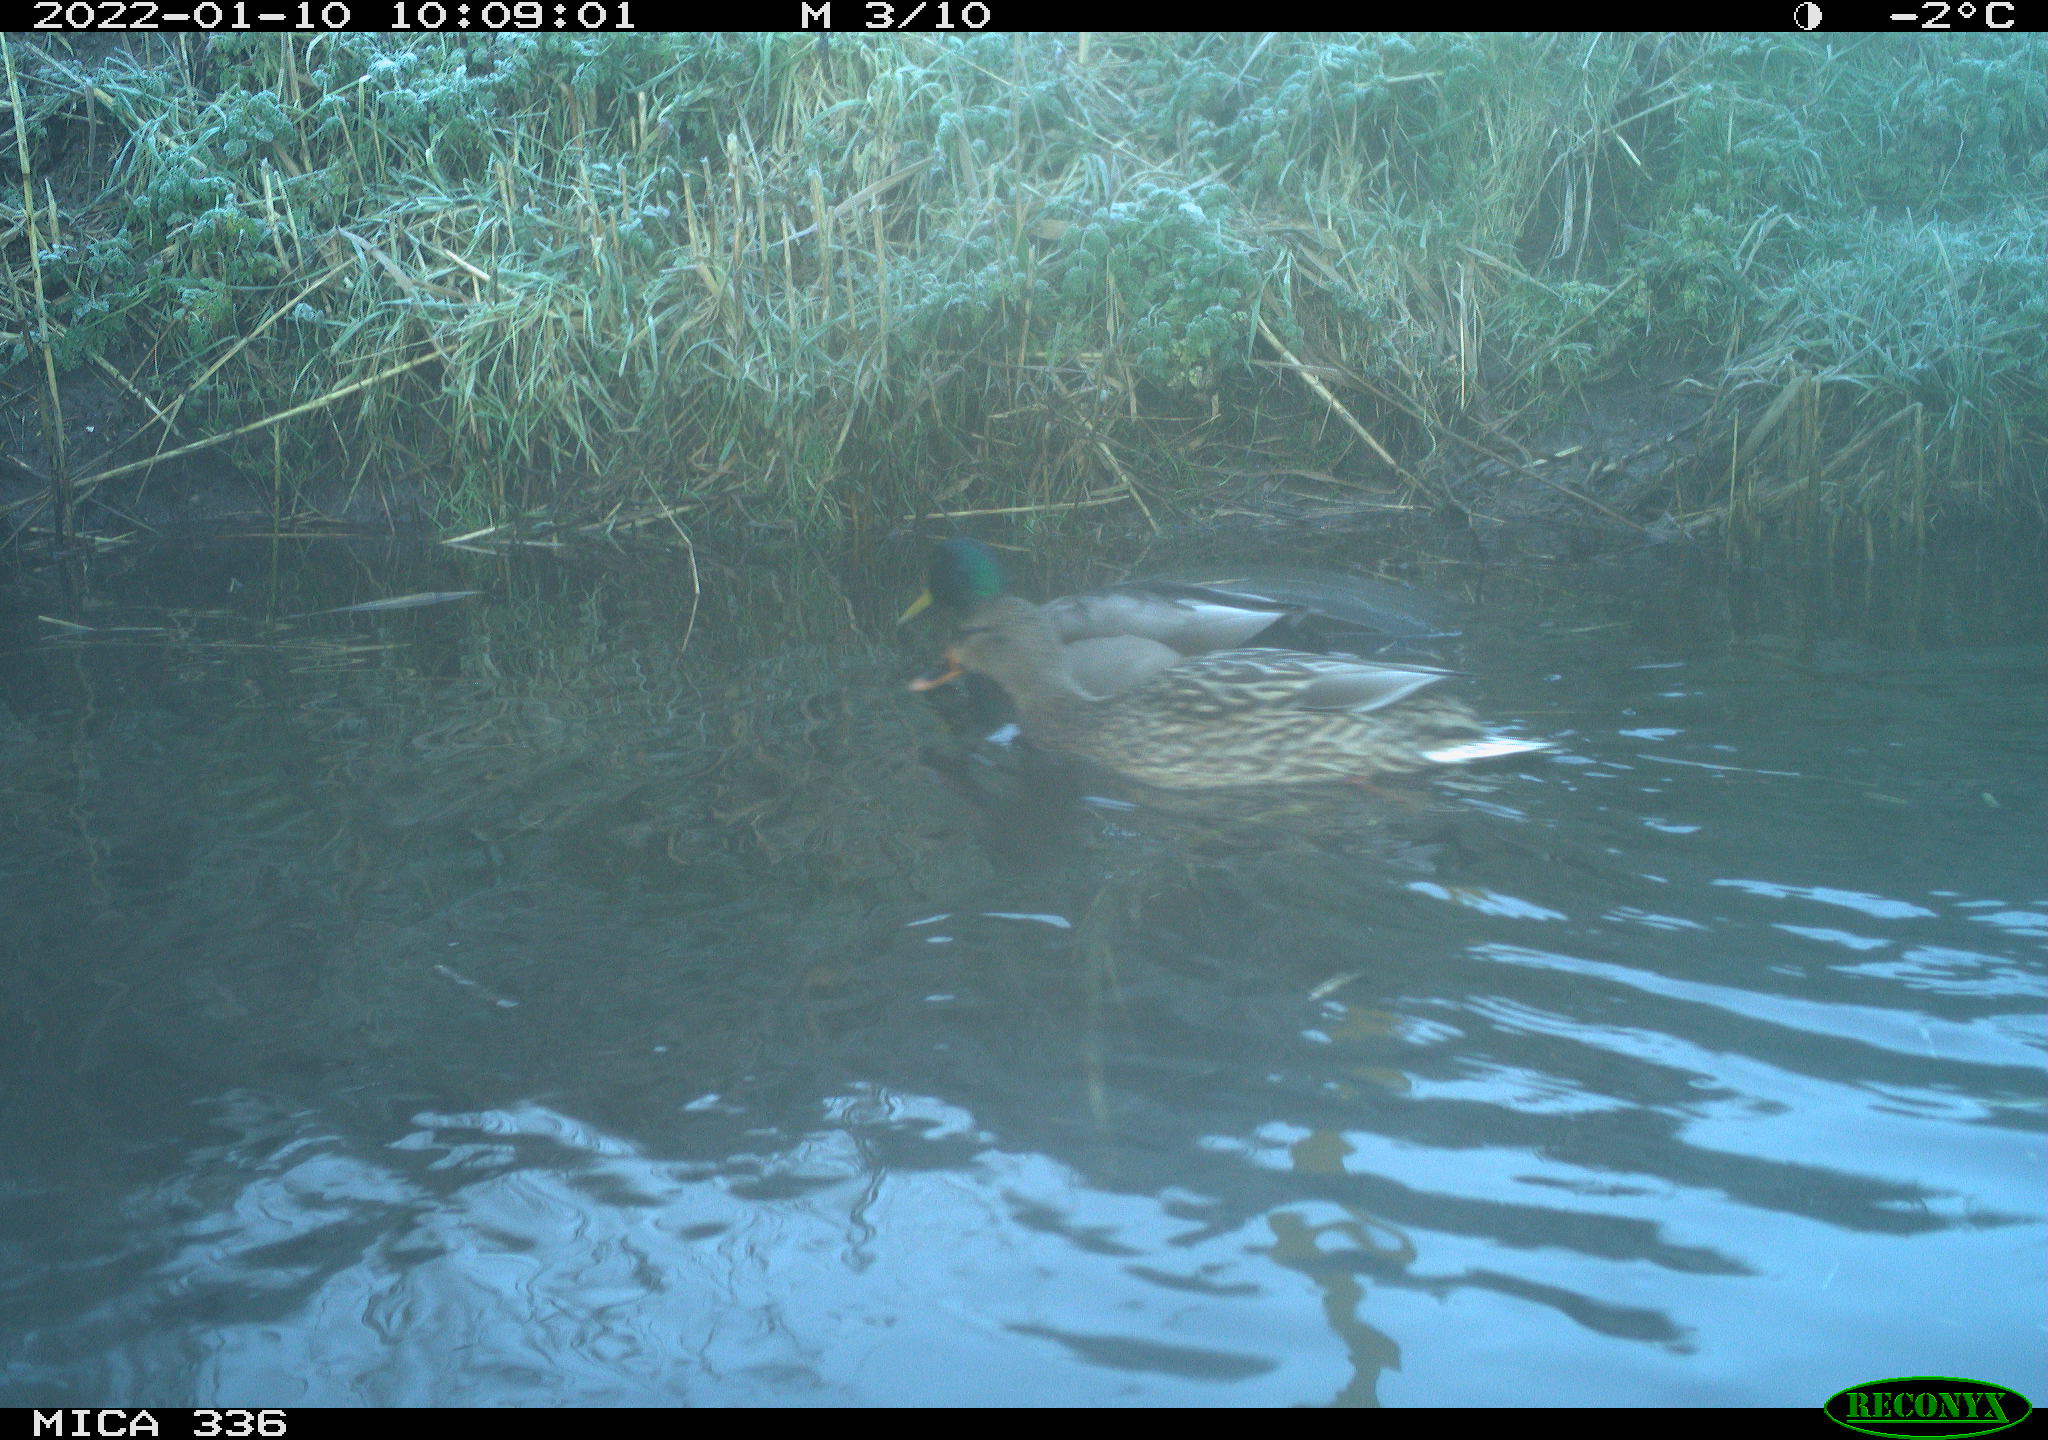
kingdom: Animalia
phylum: Chordata
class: Aves
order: Anseriformes
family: Anatidae
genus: Anas
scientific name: Anas platyrhynchos
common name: Mallard
